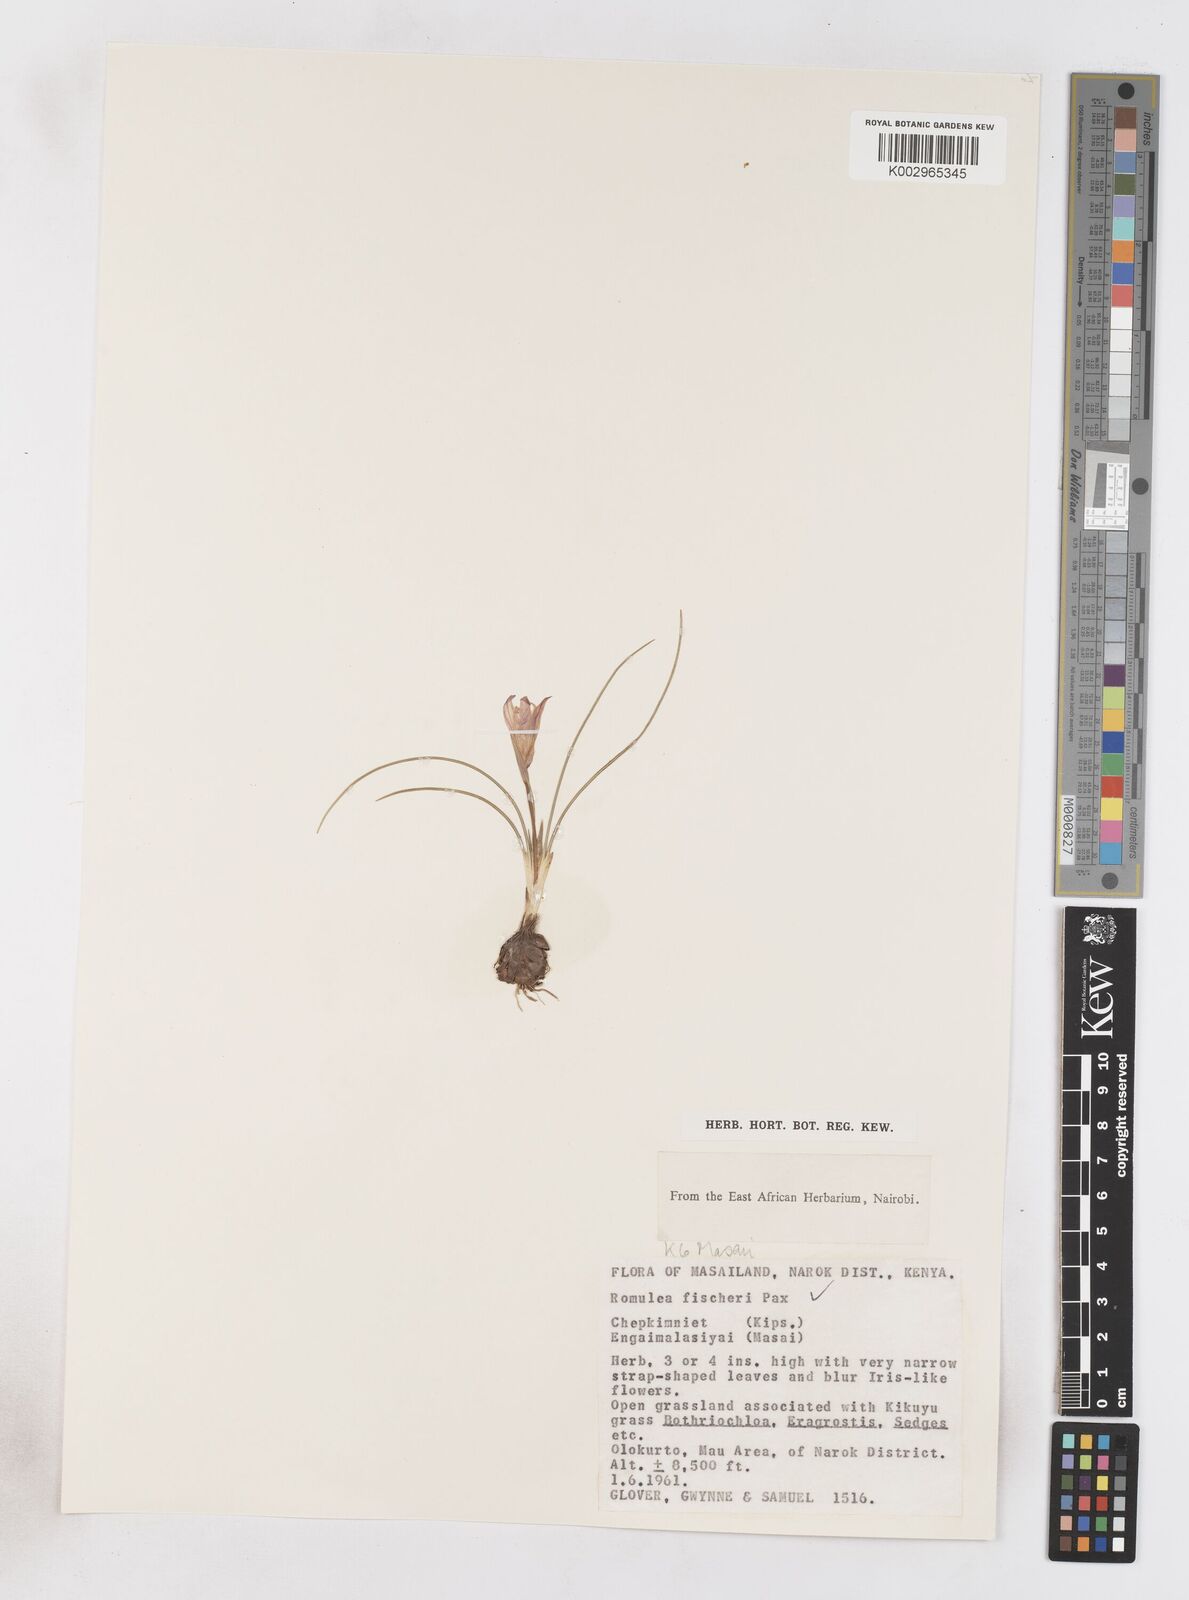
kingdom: Plantae
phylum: Tracheophyta
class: Liliopsida
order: Asparagales
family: Iridaceae
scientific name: Iridaceae
